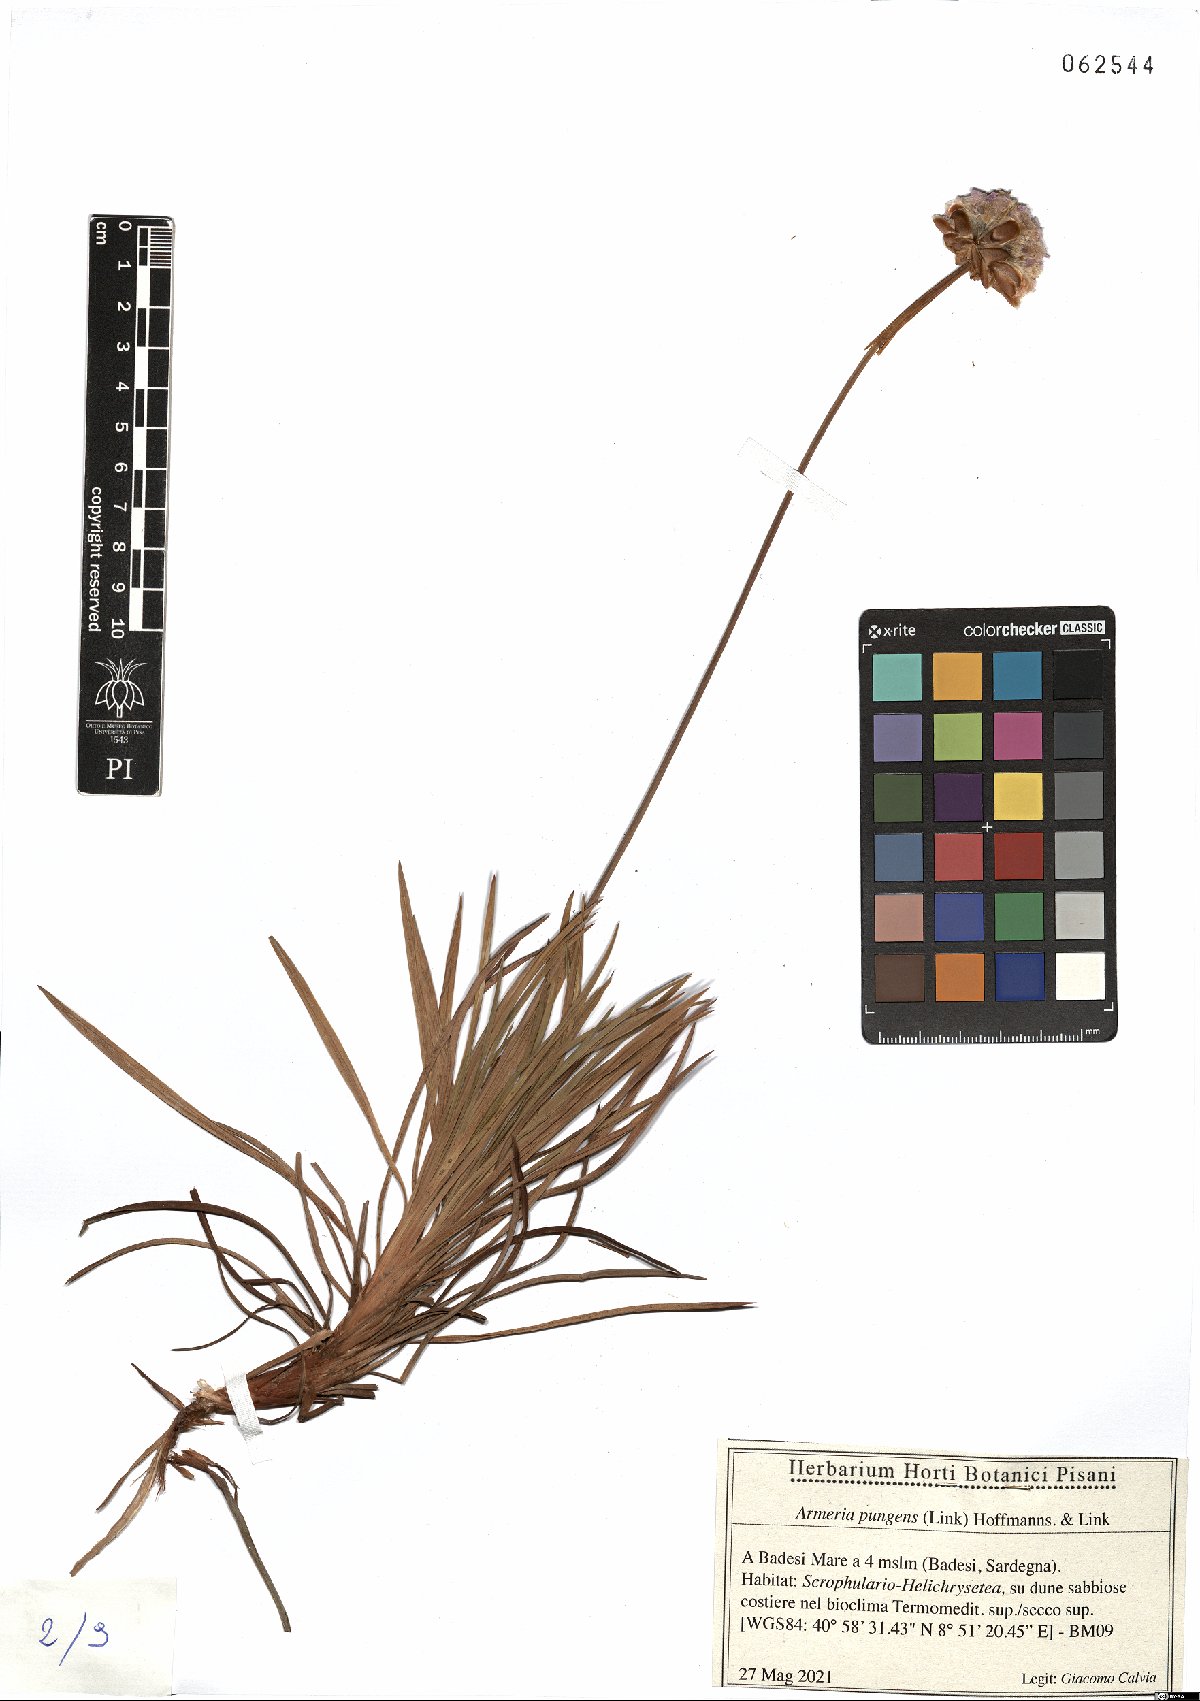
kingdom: Plantae
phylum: Tracheophyta
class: Magnoliopsida
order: Caryophyllales
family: Plumbaginaceae
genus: Armeria
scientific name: Armeria pungens
